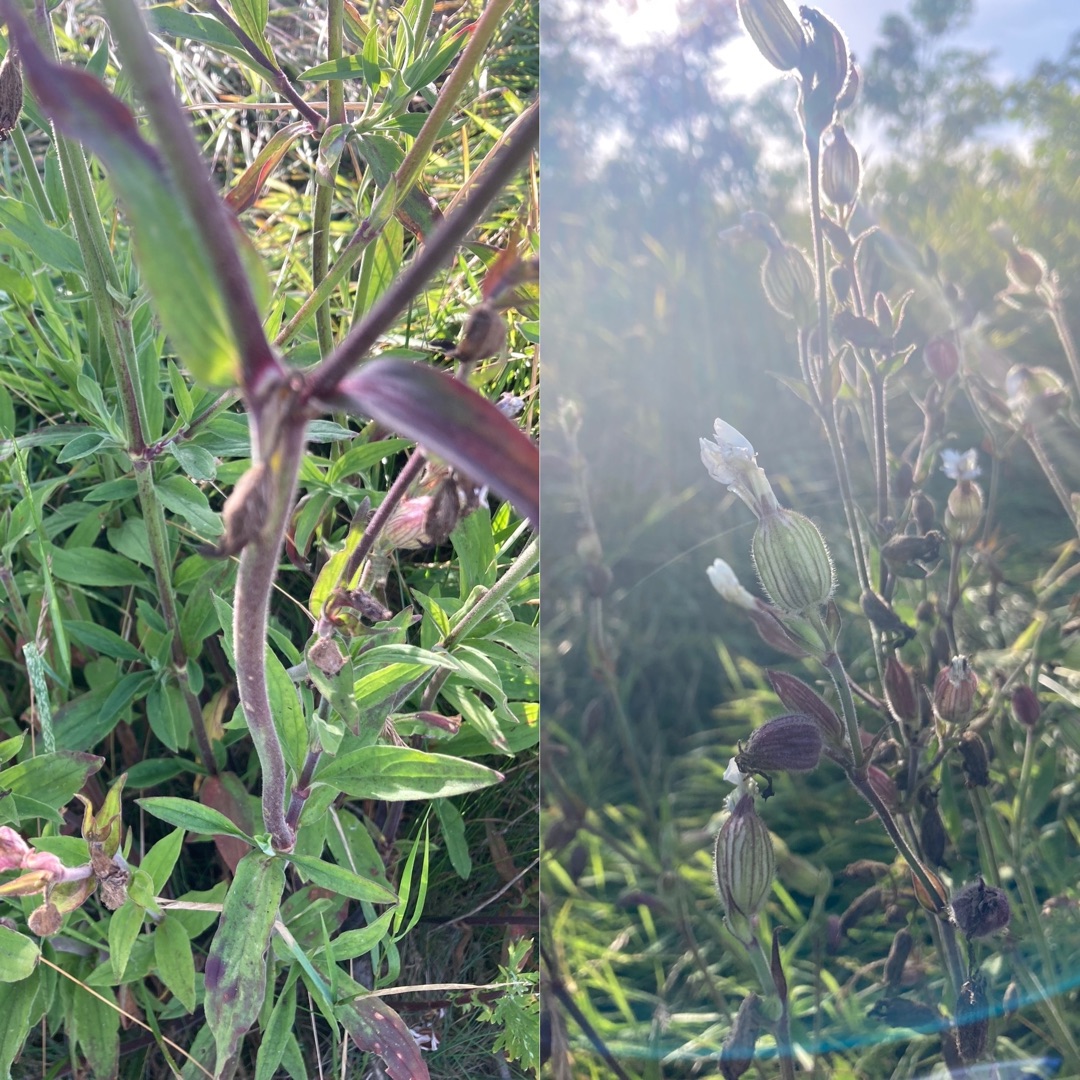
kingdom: Plantae
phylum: Tracheophyta
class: Magnoliopsida
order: Caryophyllales
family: Caryophyllaceae
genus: Silene
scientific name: Silene latifolia
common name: Aftenpragtstjerne
